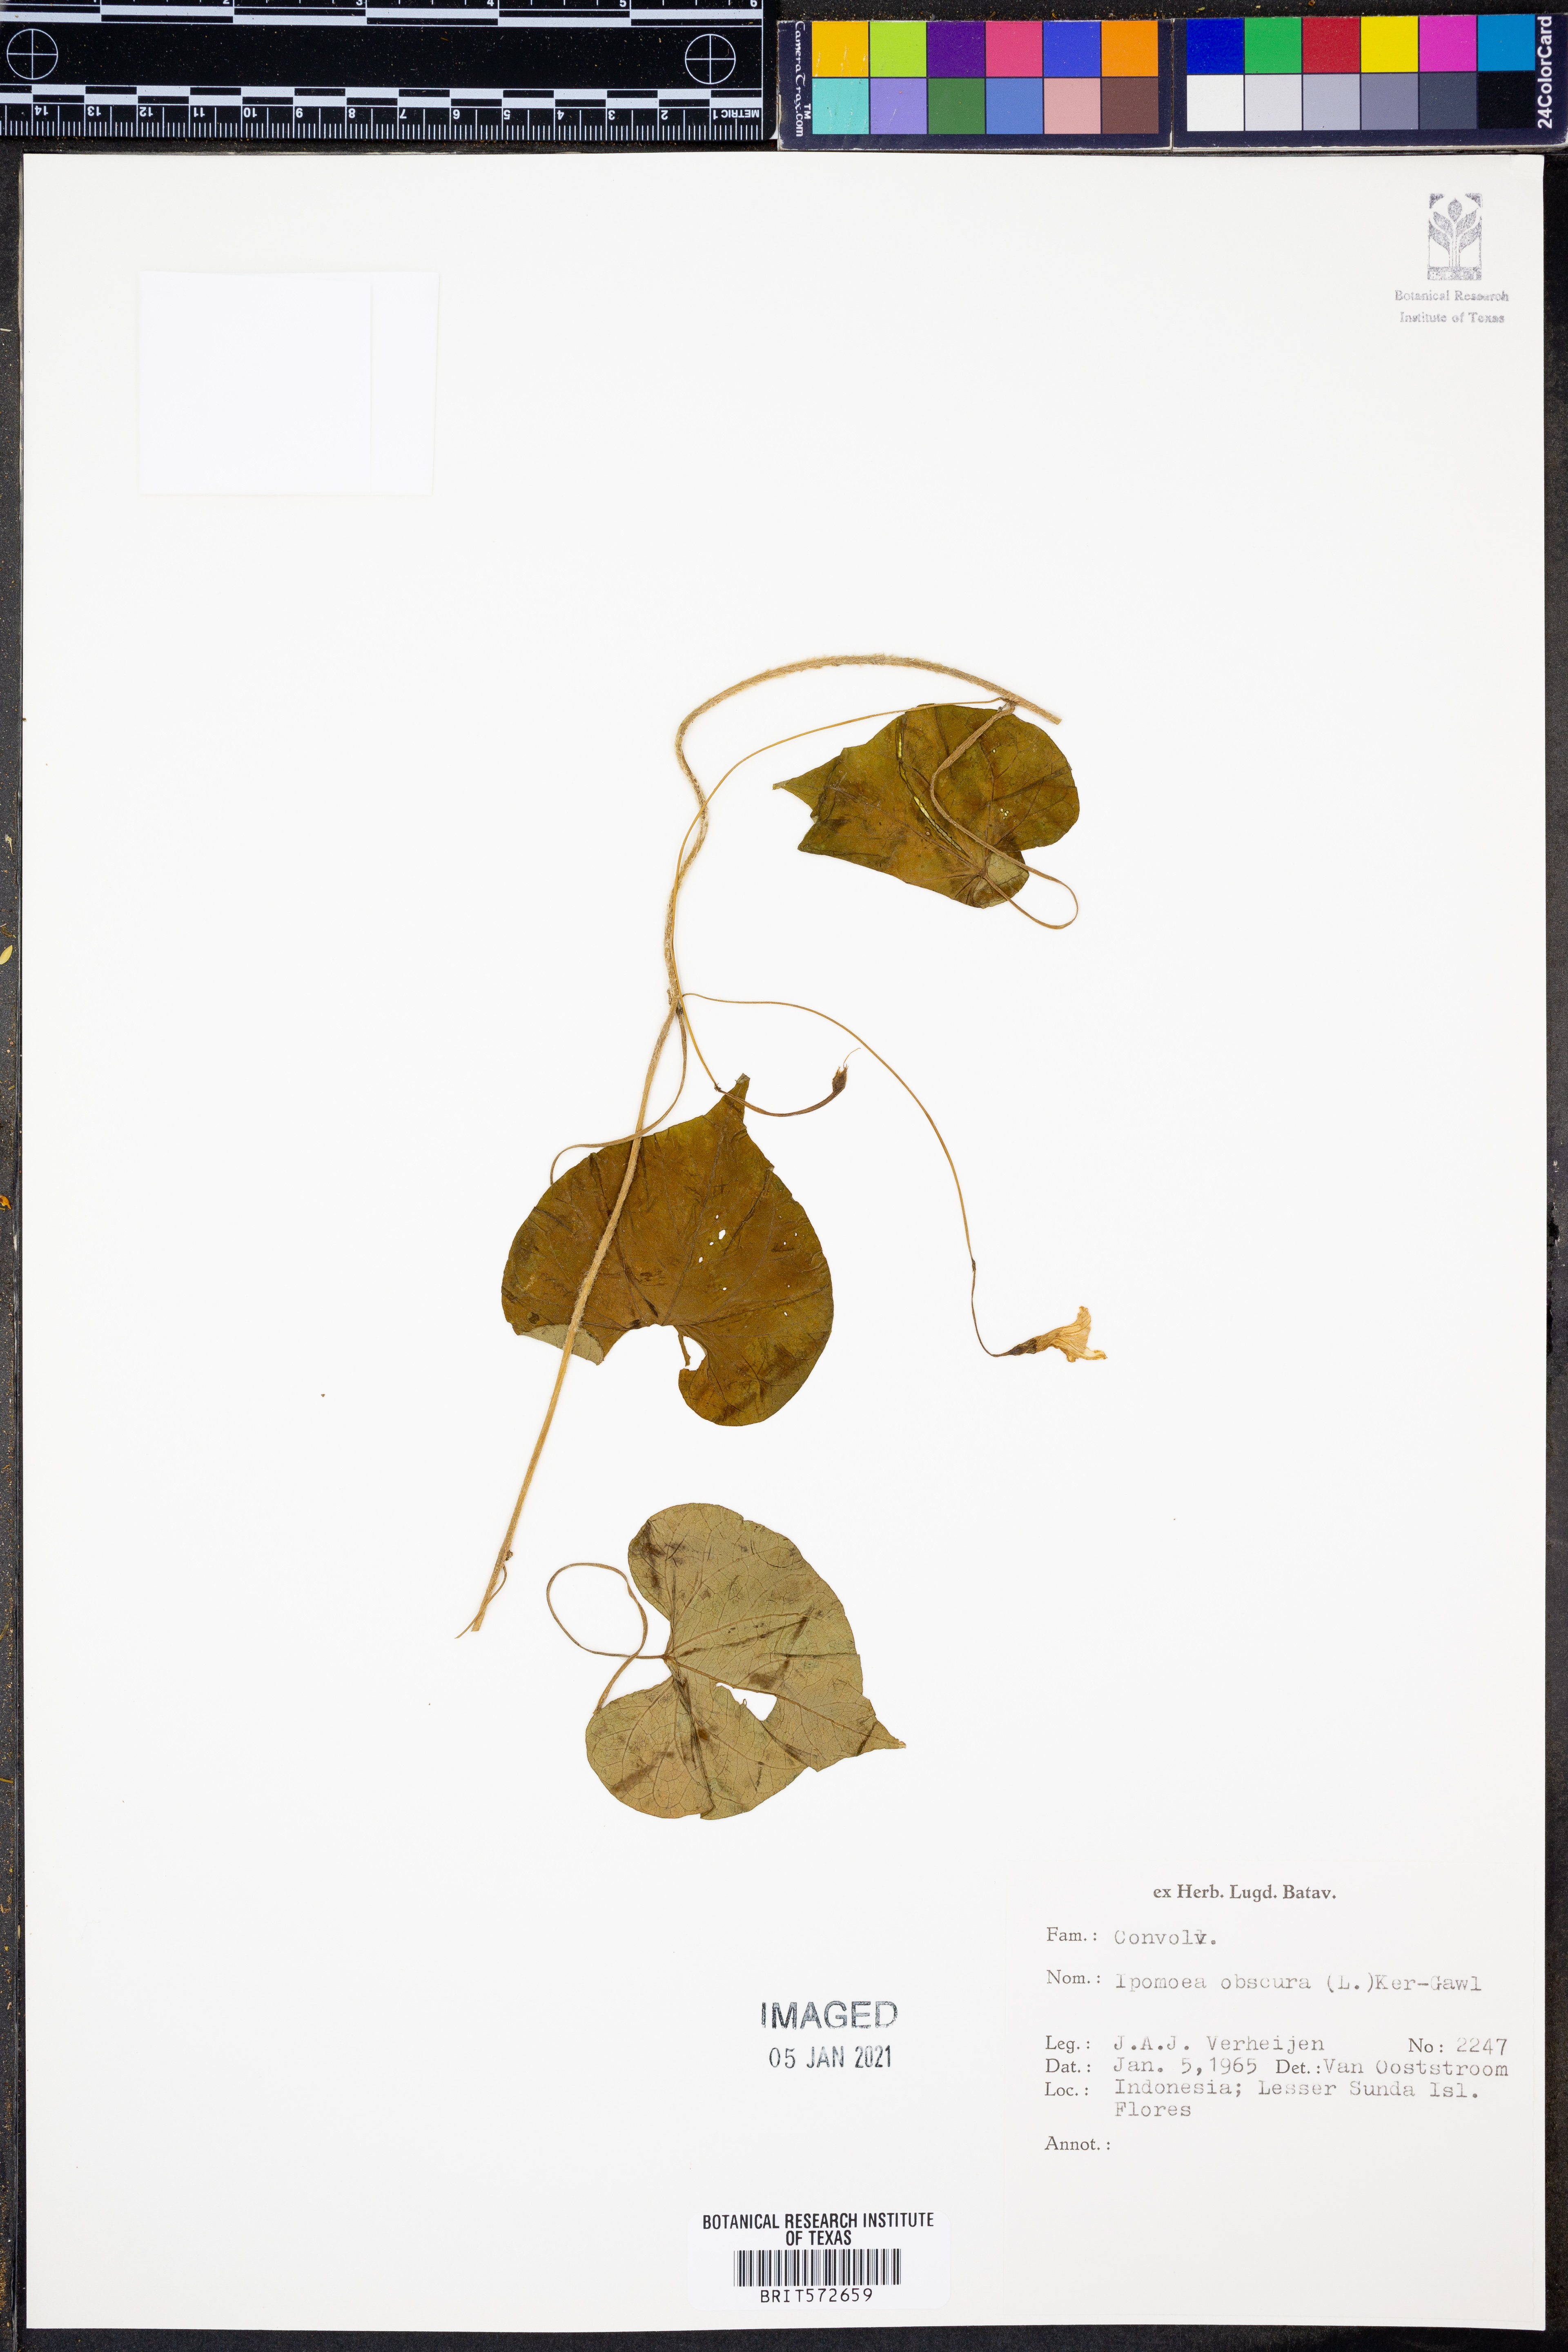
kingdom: Plantae
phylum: Tracheophyta
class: Magnoliopsida
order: Solanales
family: Convolvulaceae
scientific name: Convolvulaceae
